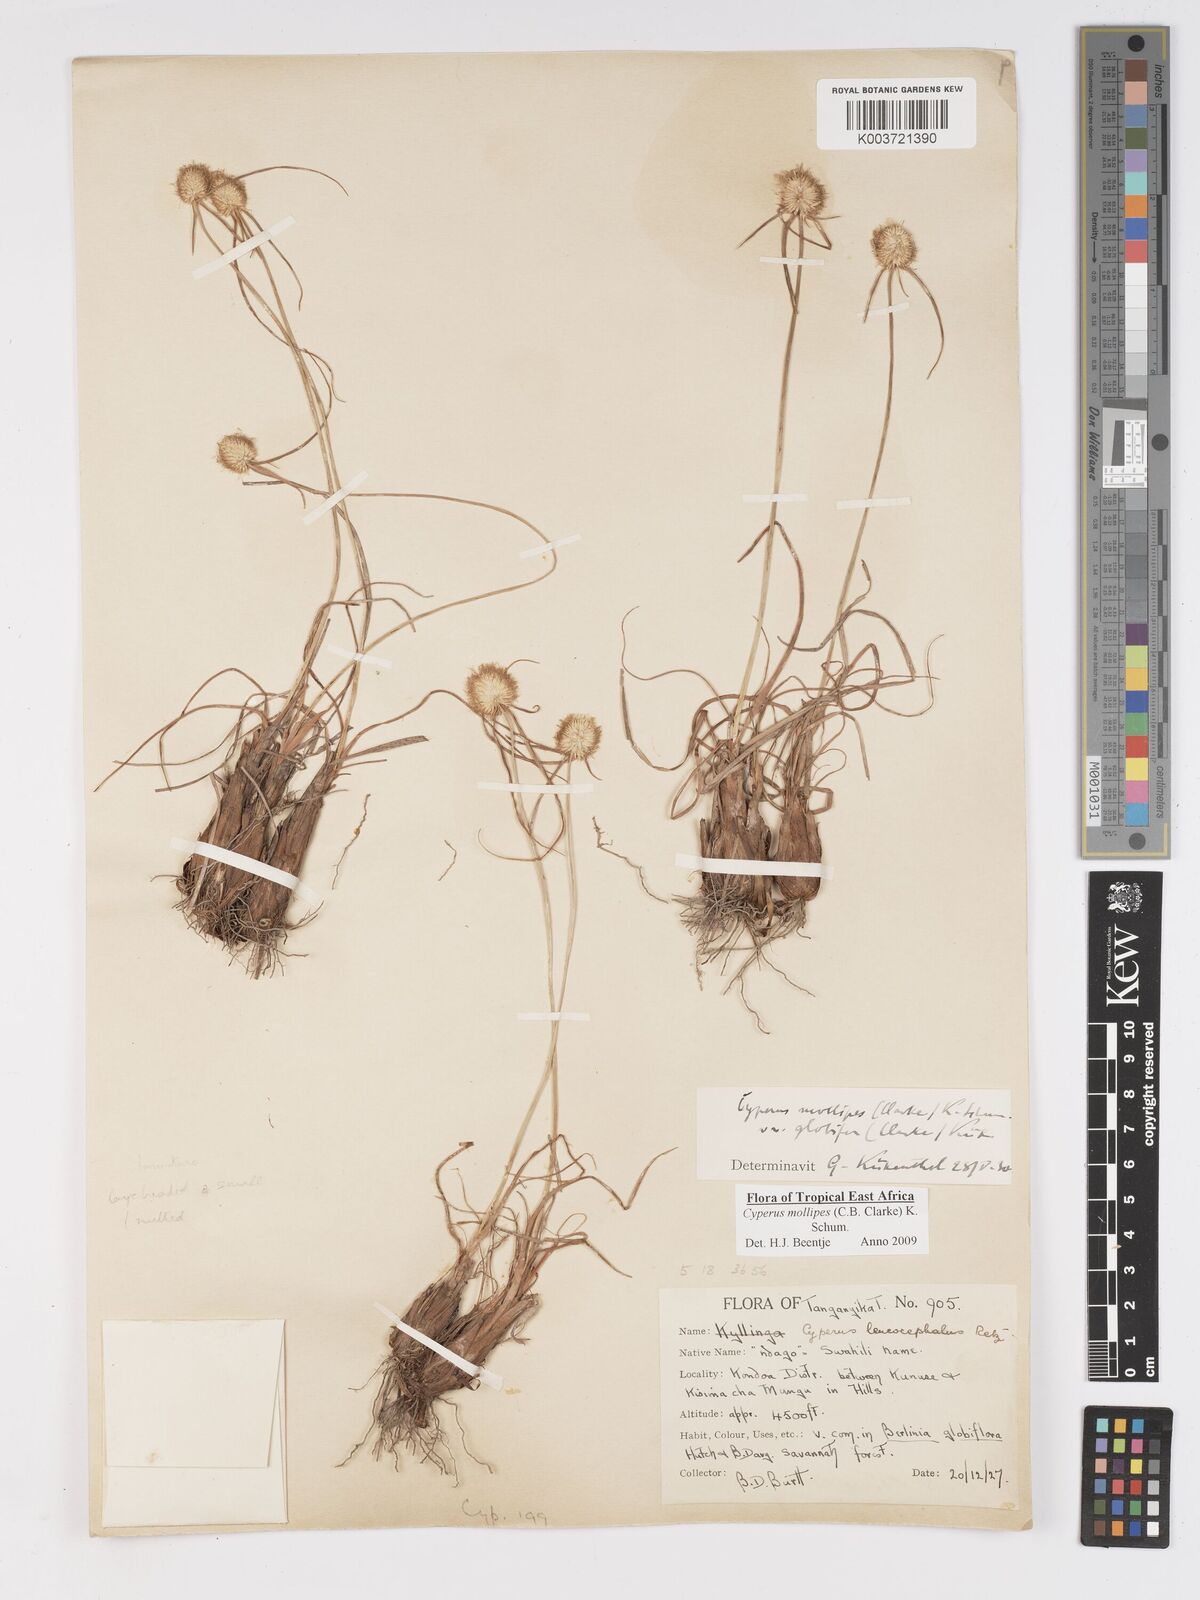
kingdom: Plantae
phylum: Tracheophyta
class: Liliopsida
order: Poales
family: Cyperaceae
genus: Cyperus
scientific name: Cyperus mollipes
